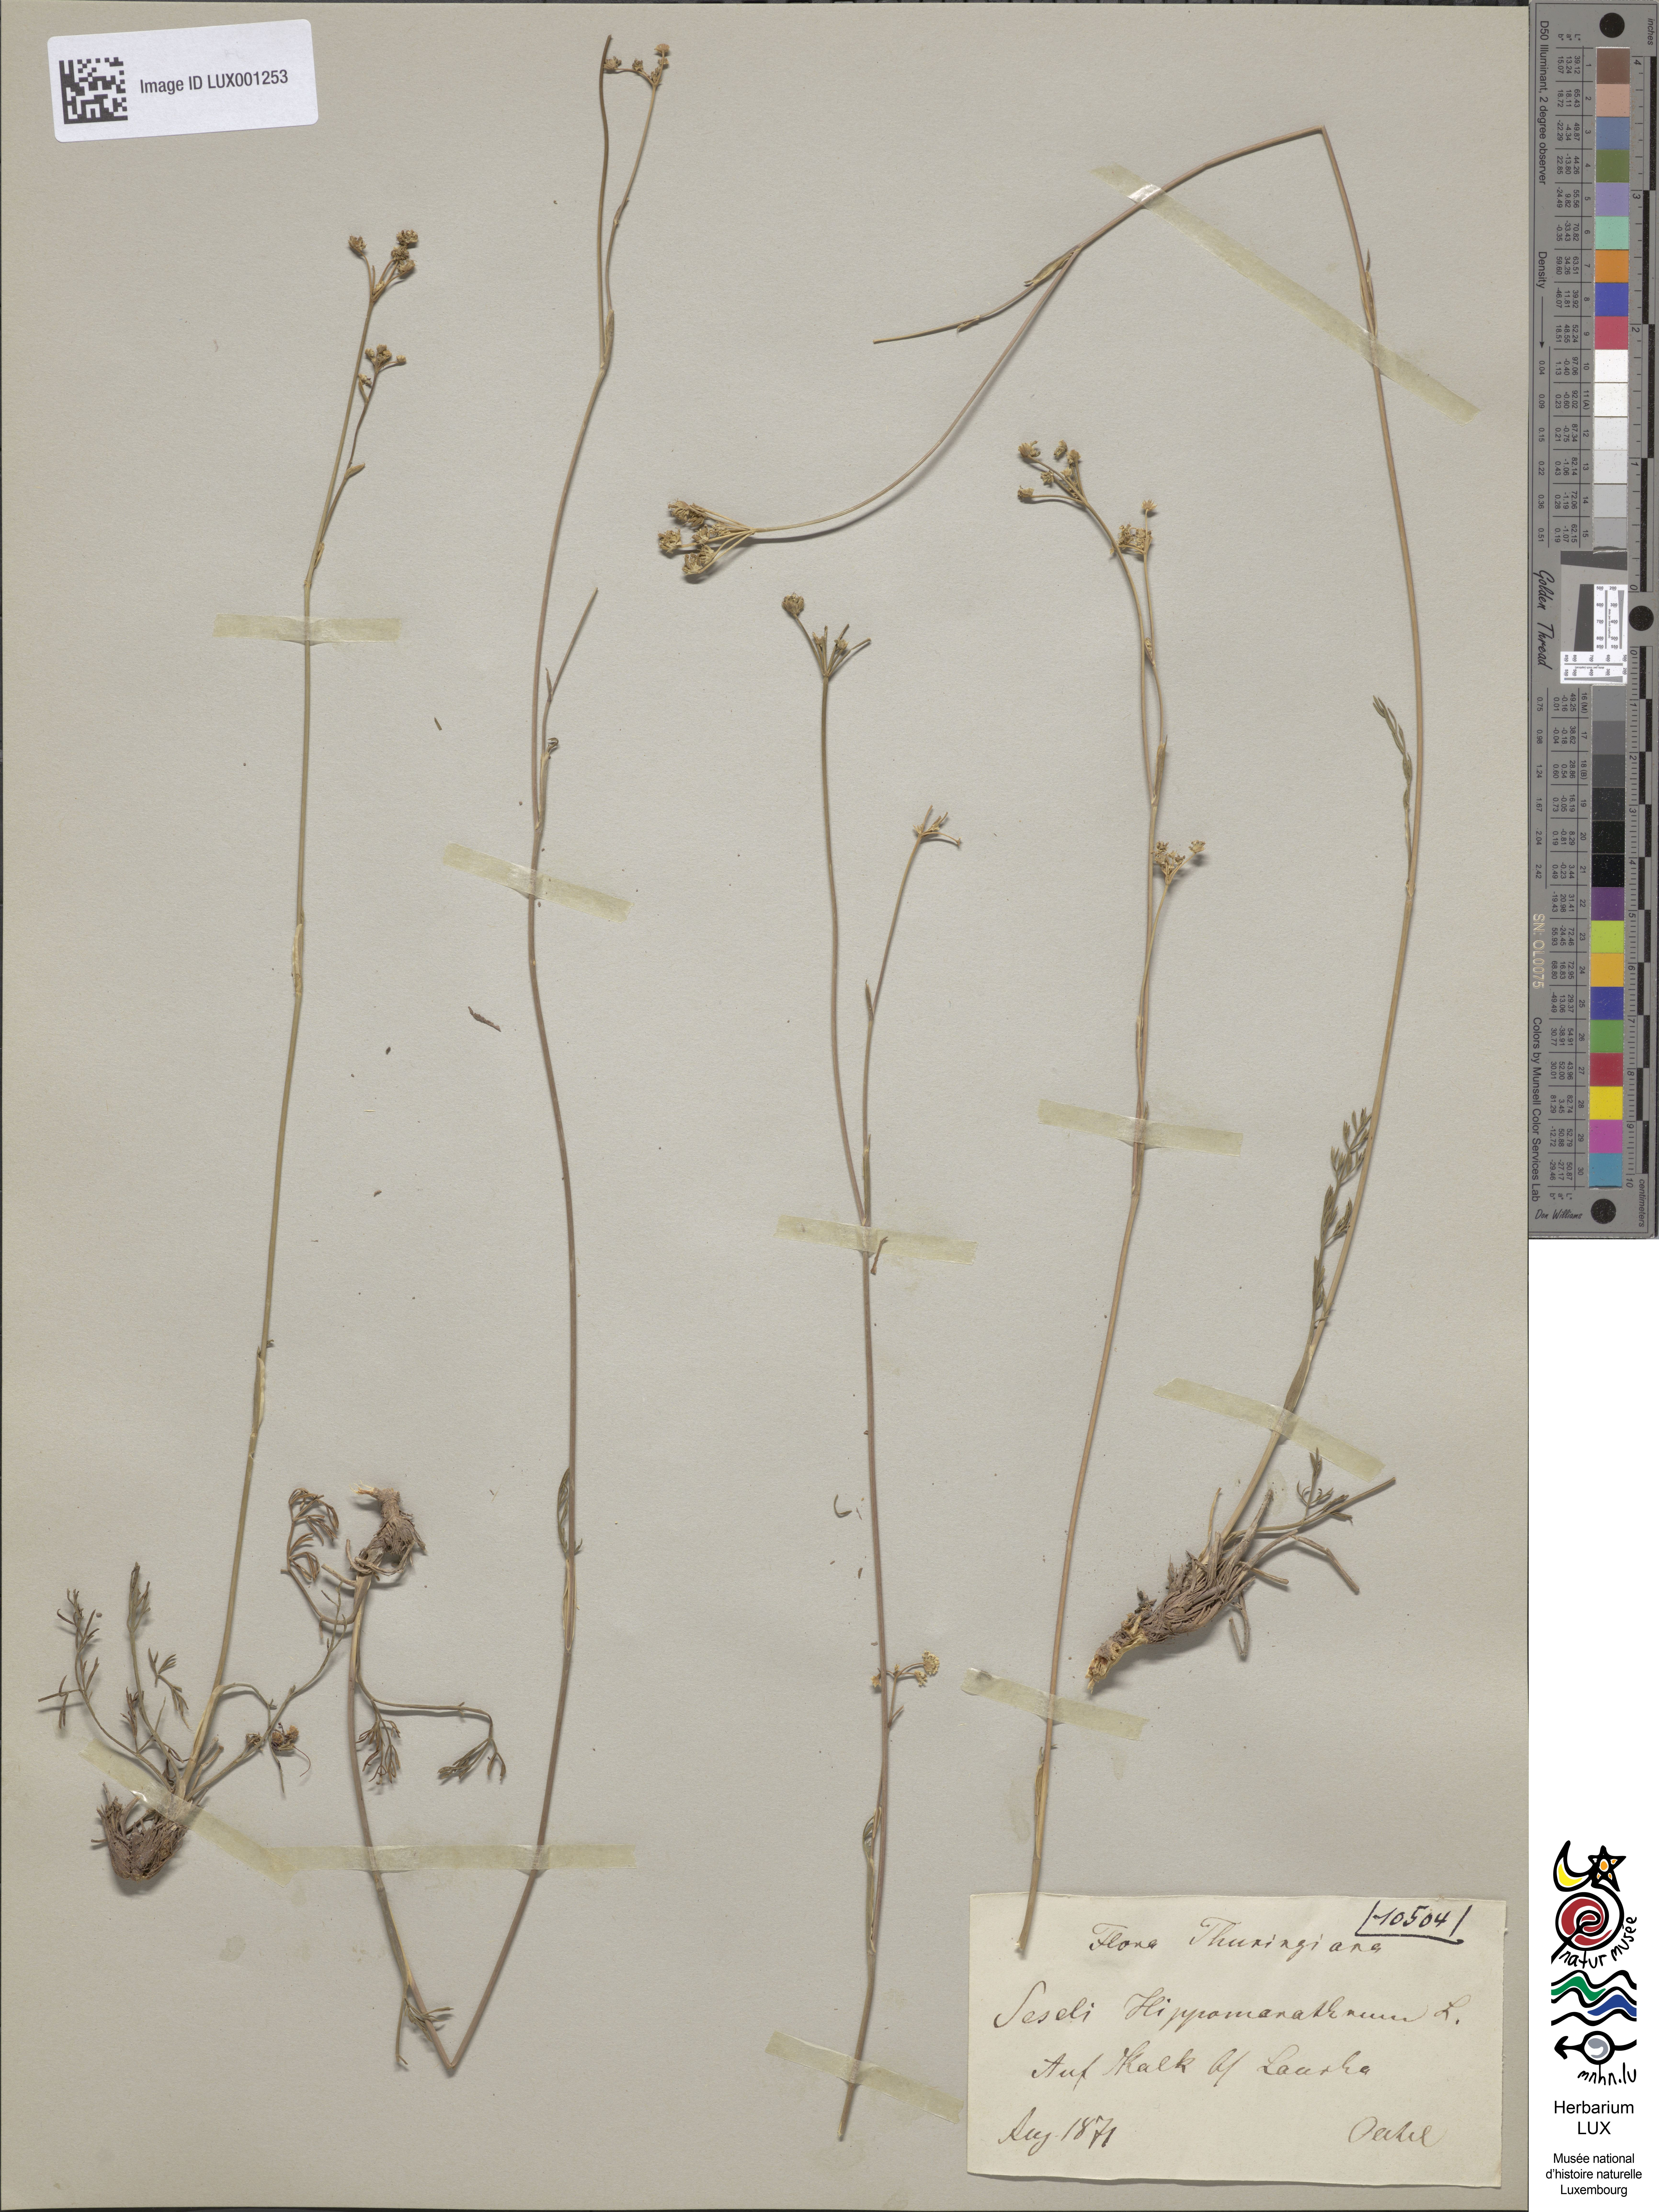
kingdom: Plantae
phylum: Tracheophyta
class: Magnoliopsida
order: Apiales
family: Apiaceae
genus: Hippomarathrum
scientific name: Hippomarathrum vulgare
